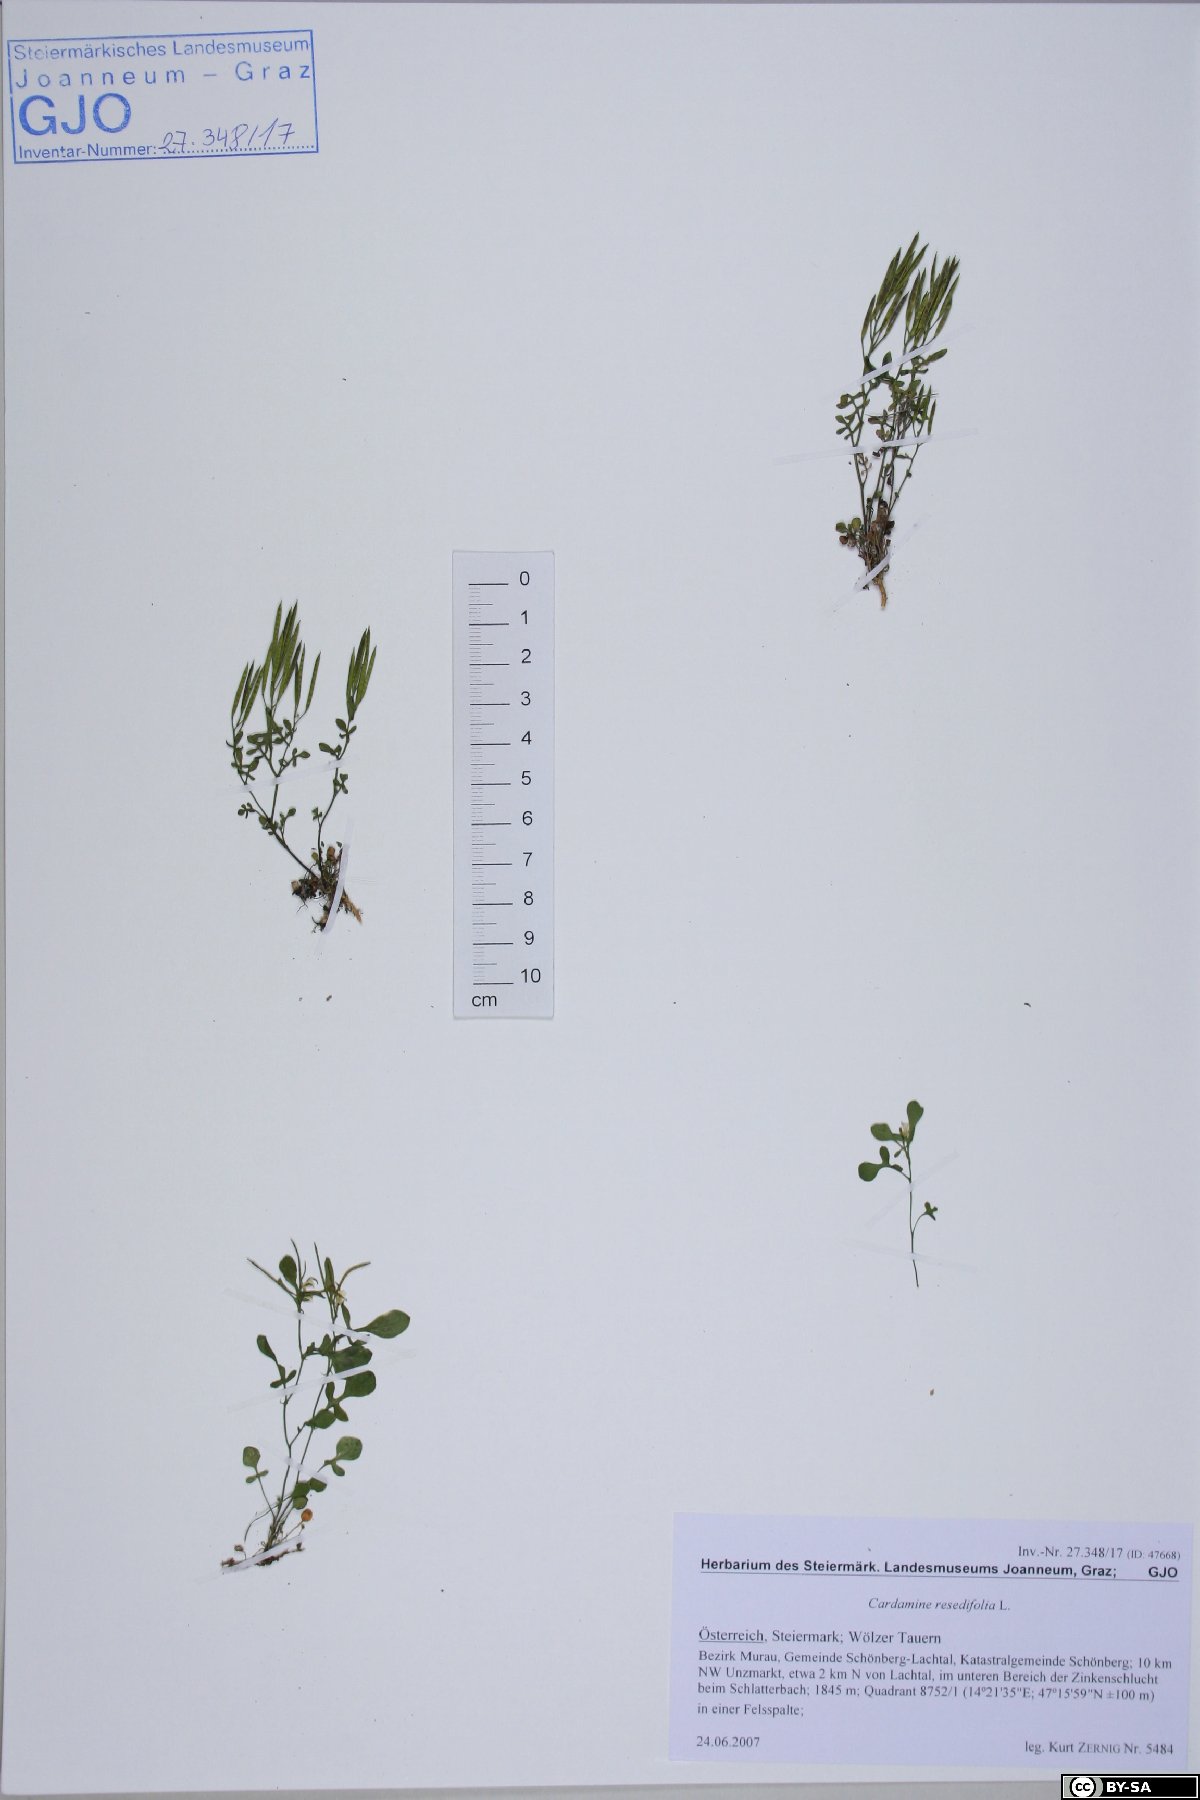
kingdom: Plantae
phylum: Tracheophyta
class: Magnoliopsida
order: Brassicales
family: Brassicaceae
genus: Cardamine
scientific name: Cardamine resedifolia
